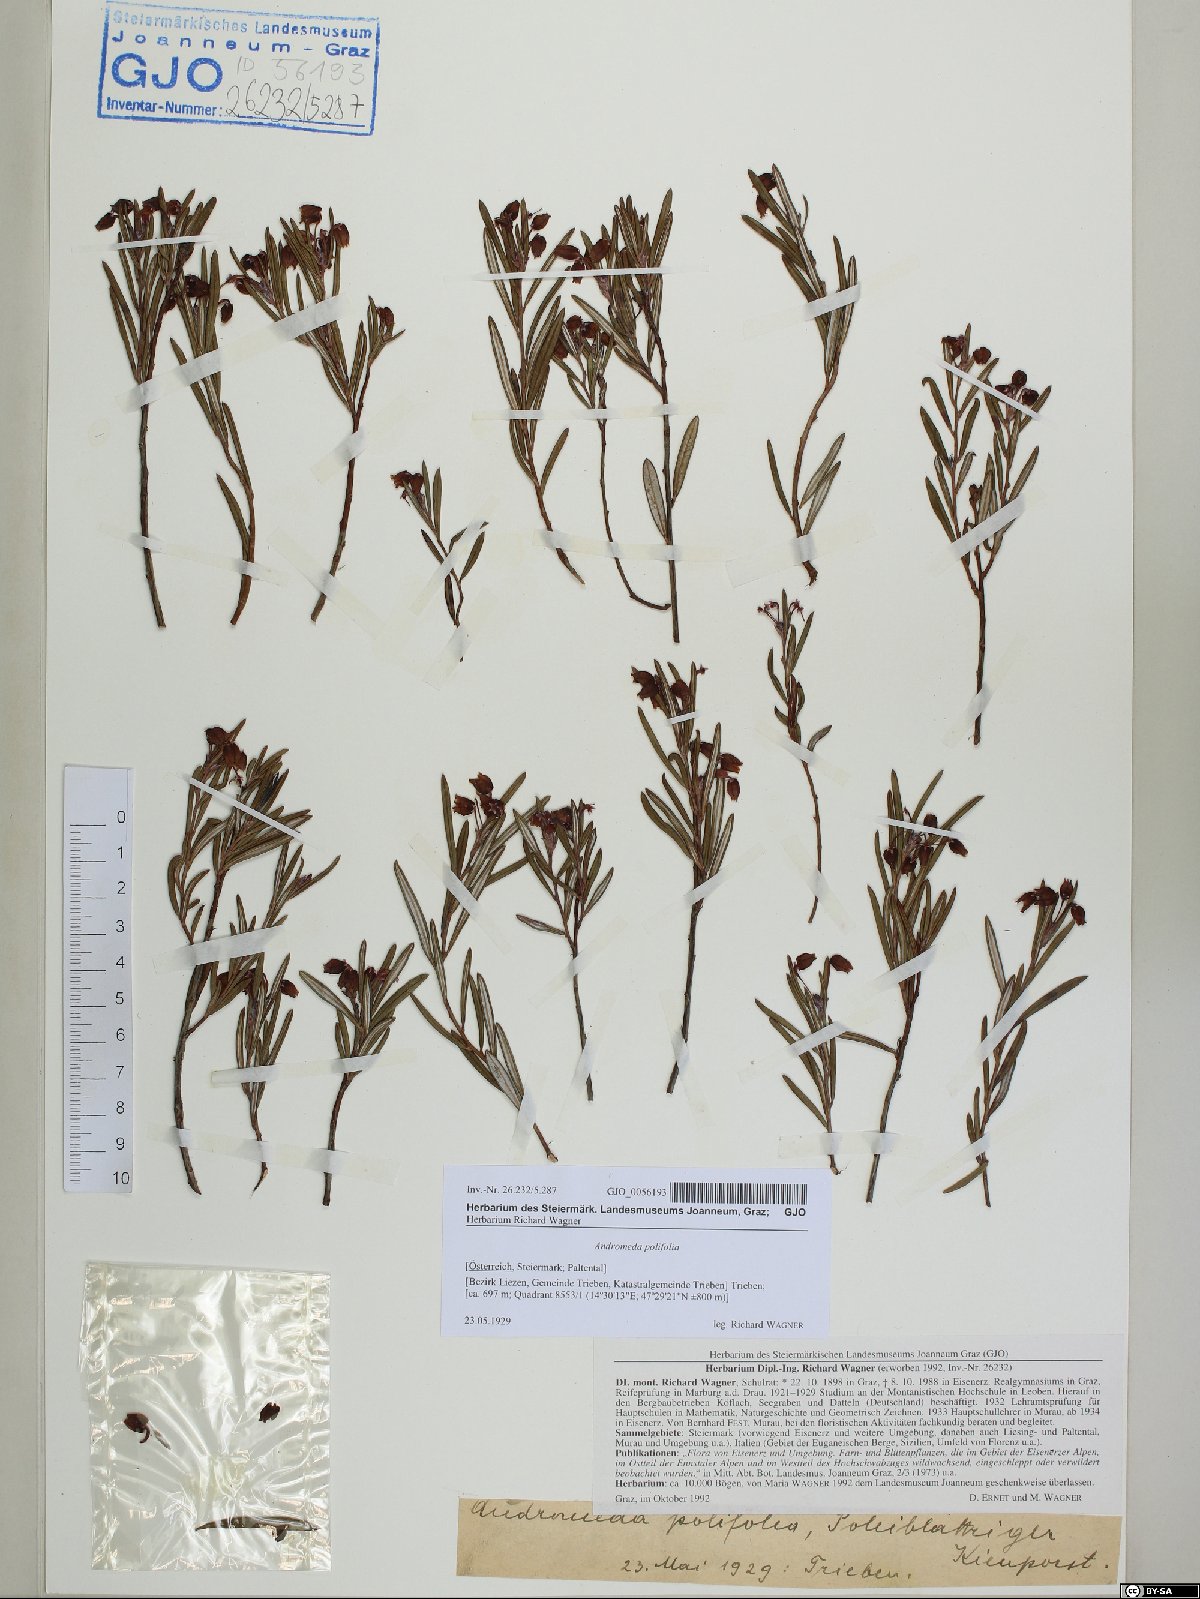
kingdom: Plantae
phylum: Tracheophyta
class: Magnoliopsida
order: Ericales
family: Ericaceae
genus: Andromeda
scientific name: Andromeda polifolia
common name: Bog-rosemary
